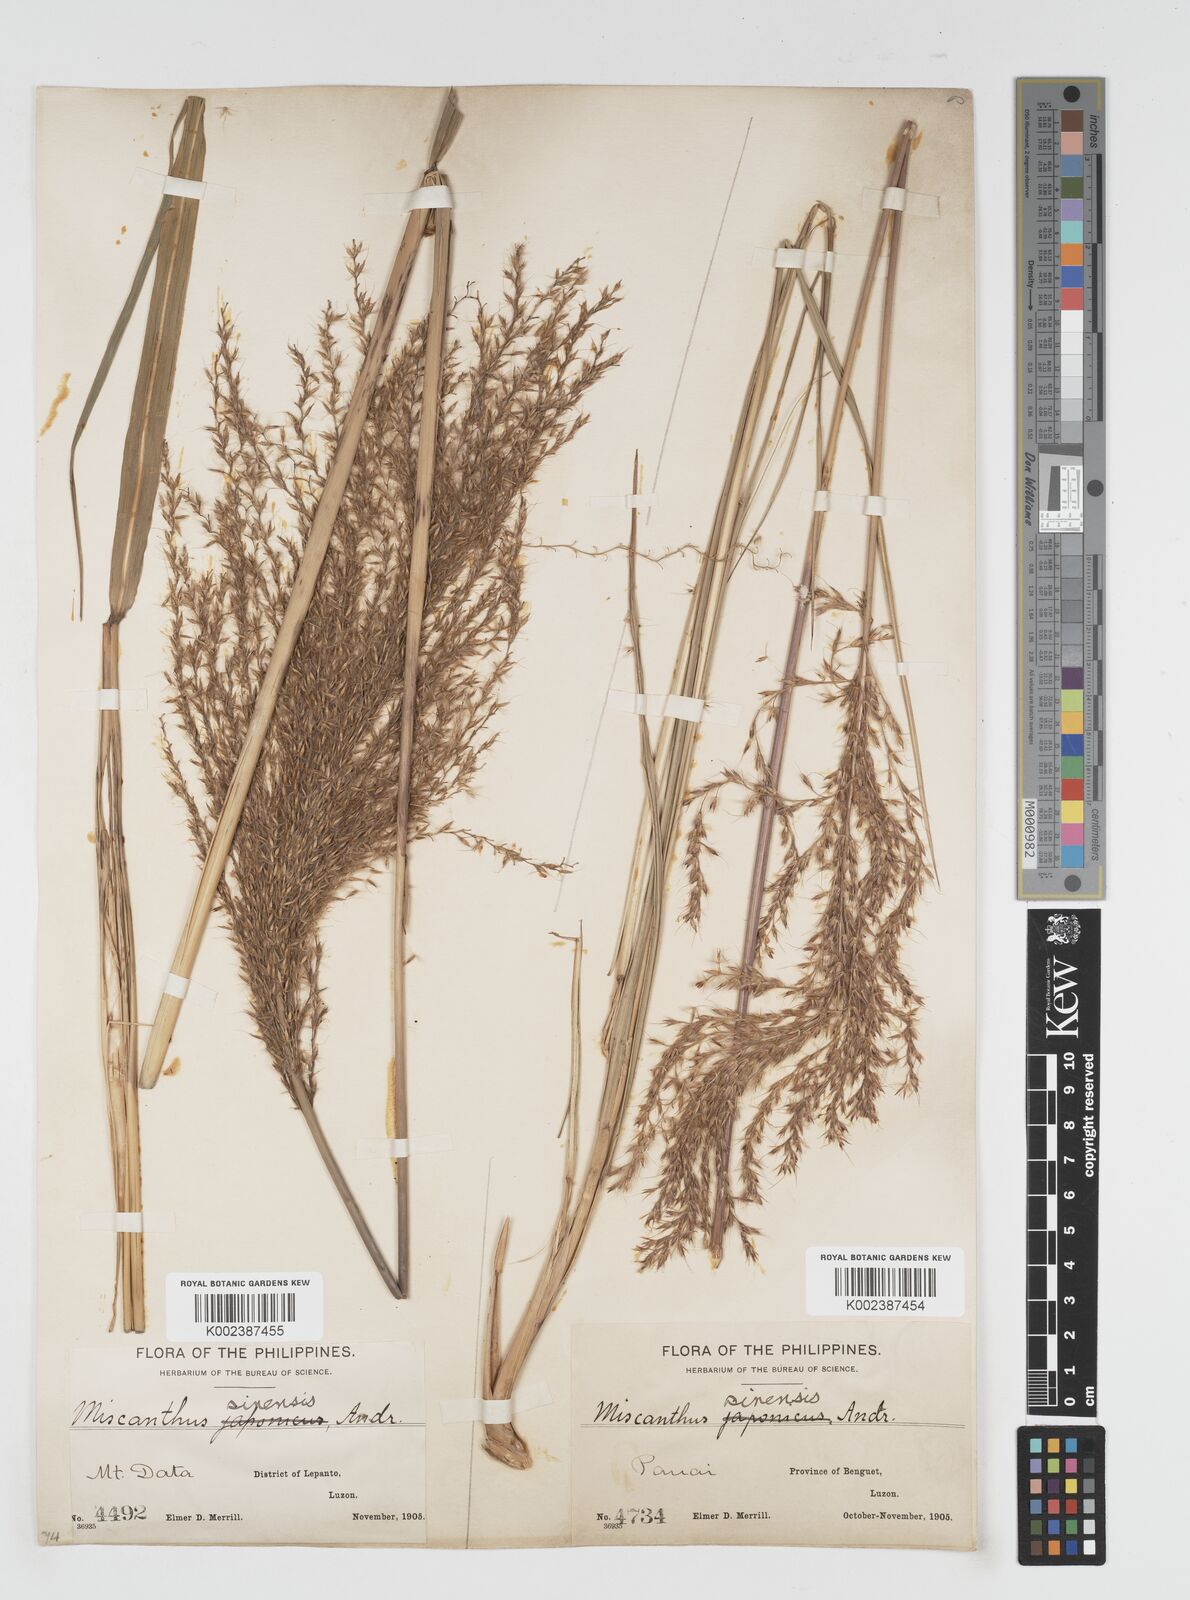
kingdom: Plantae
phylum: Tracheophyta
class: Liliopsida
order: Poales
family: Poaceae
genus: Miscanthus
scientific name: Miscanthus
